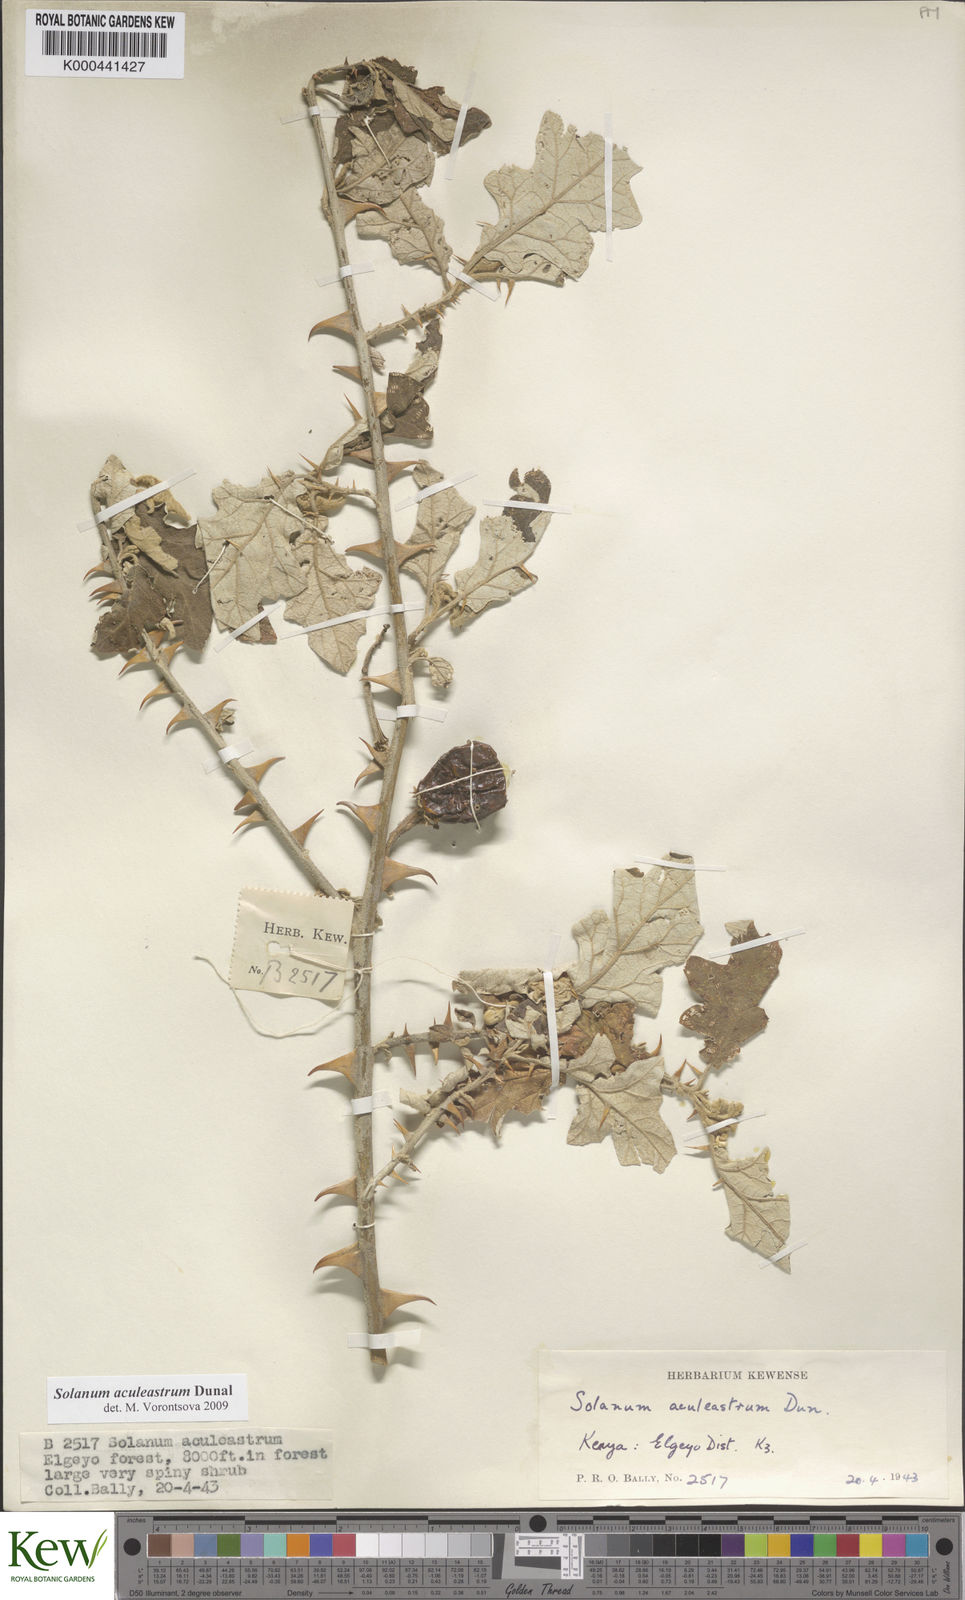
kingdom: Plantae
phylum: Tracheophyta
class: Magnoliopsida
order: Solanales
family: Solanaceae
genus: Solanum
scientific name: Solanum aculeastrum
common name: Goat bitter-apple
